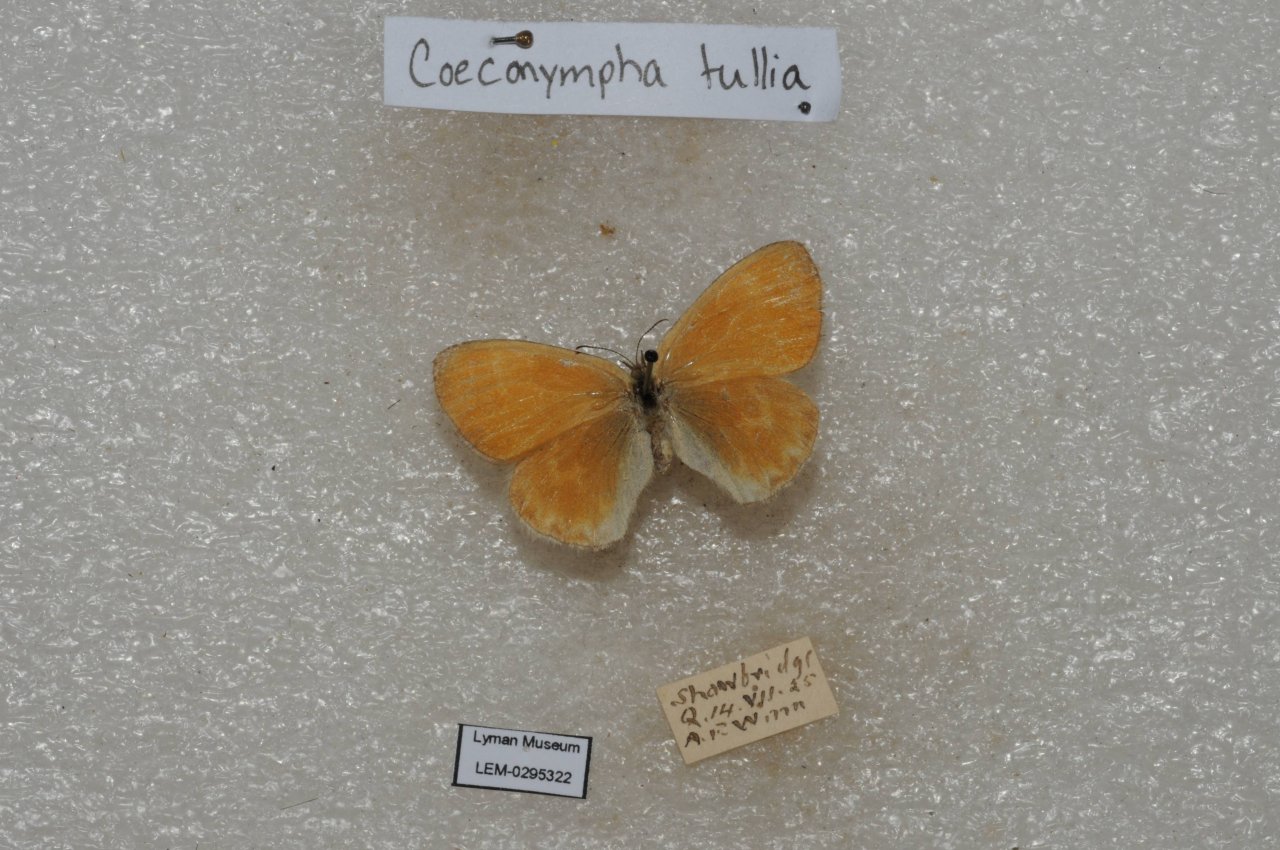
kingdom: Animalia
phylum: Arthropoda
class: Insecta
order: Lepidoptera
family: Nymphalidae
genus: Coenonympha
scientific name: Coenonympha tullia
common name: Large Heath
